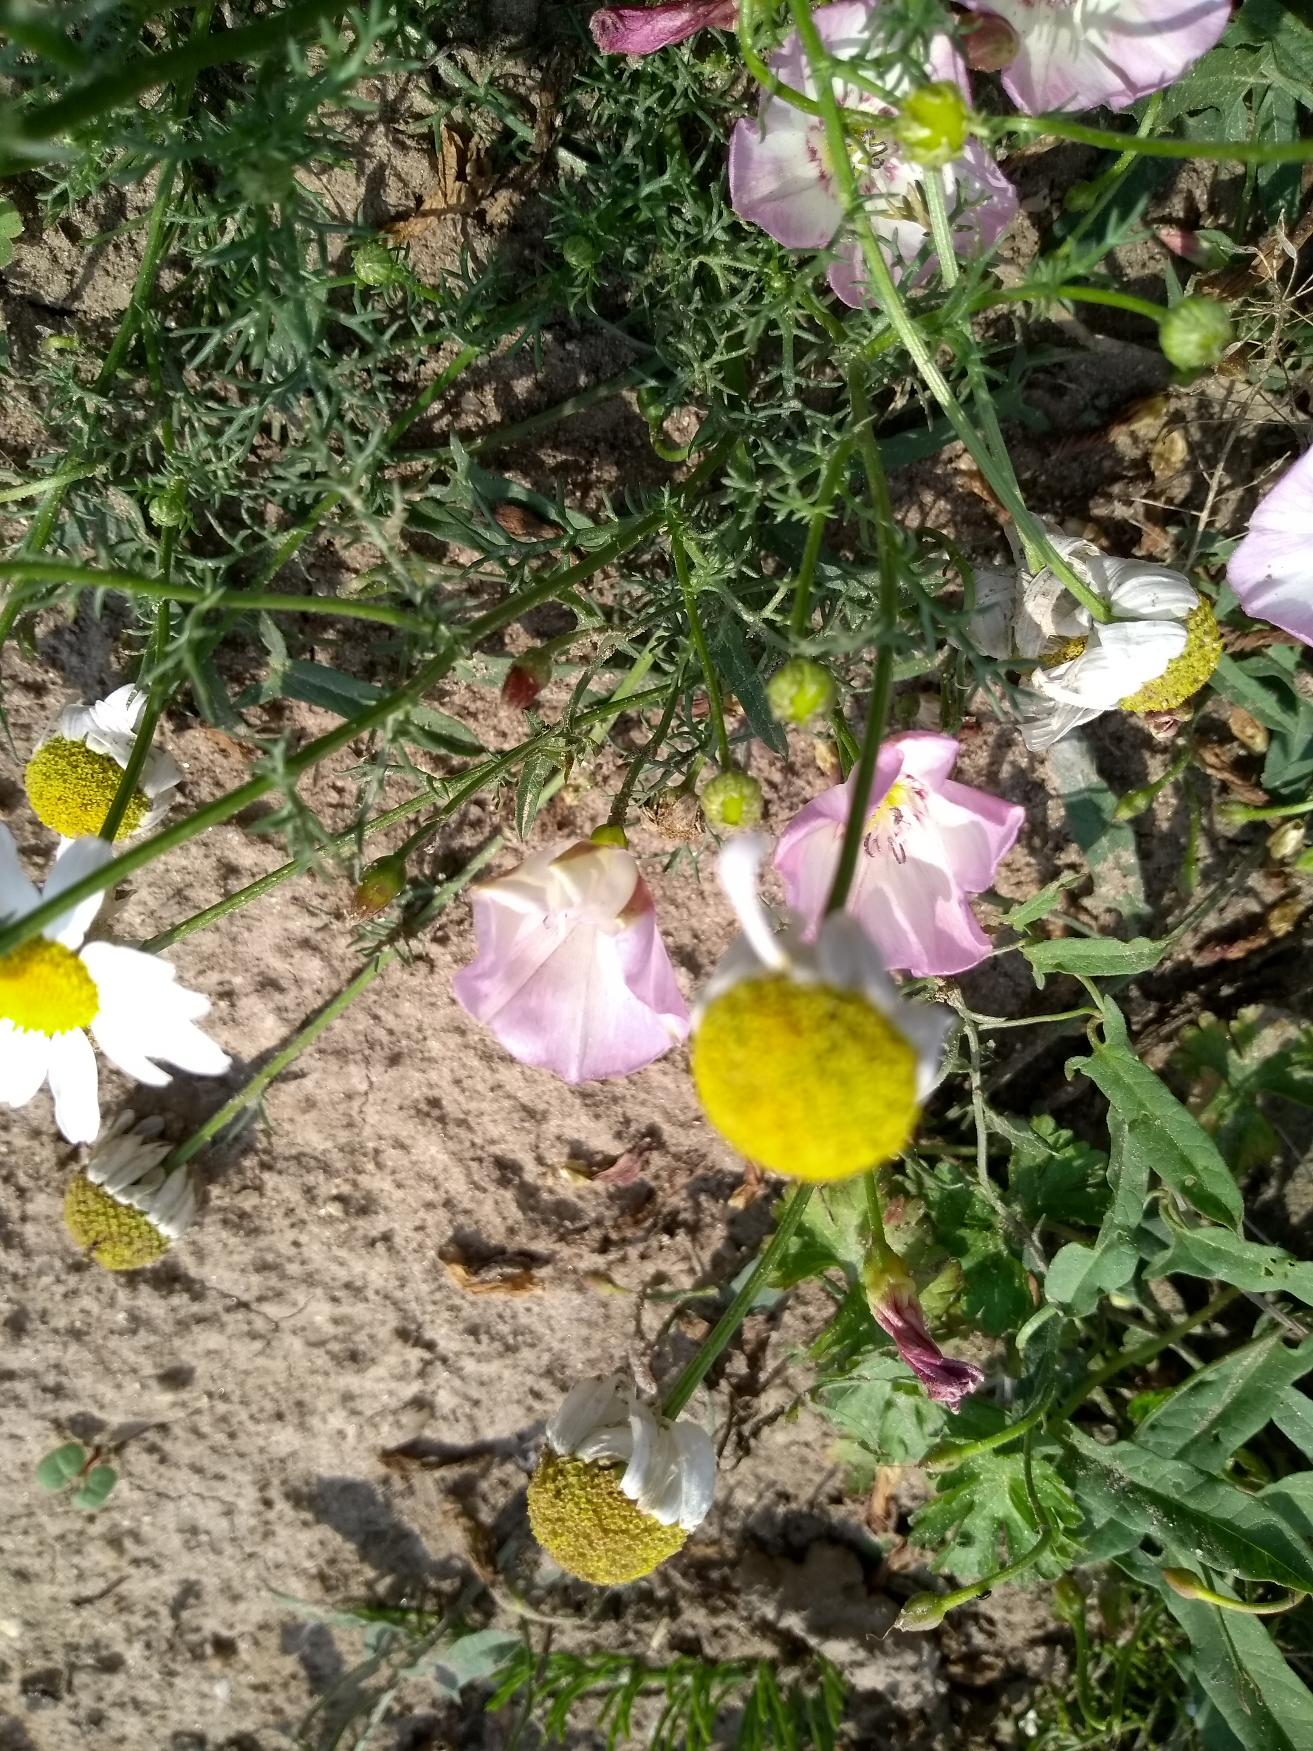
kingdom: Plantae
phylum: Tracheophyta
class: Magnoliopsida
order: Asterales
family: Asteraceae
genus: Tripleurospermum
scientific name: Tripleurospermum inodorum
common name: Lugtløs kamille
